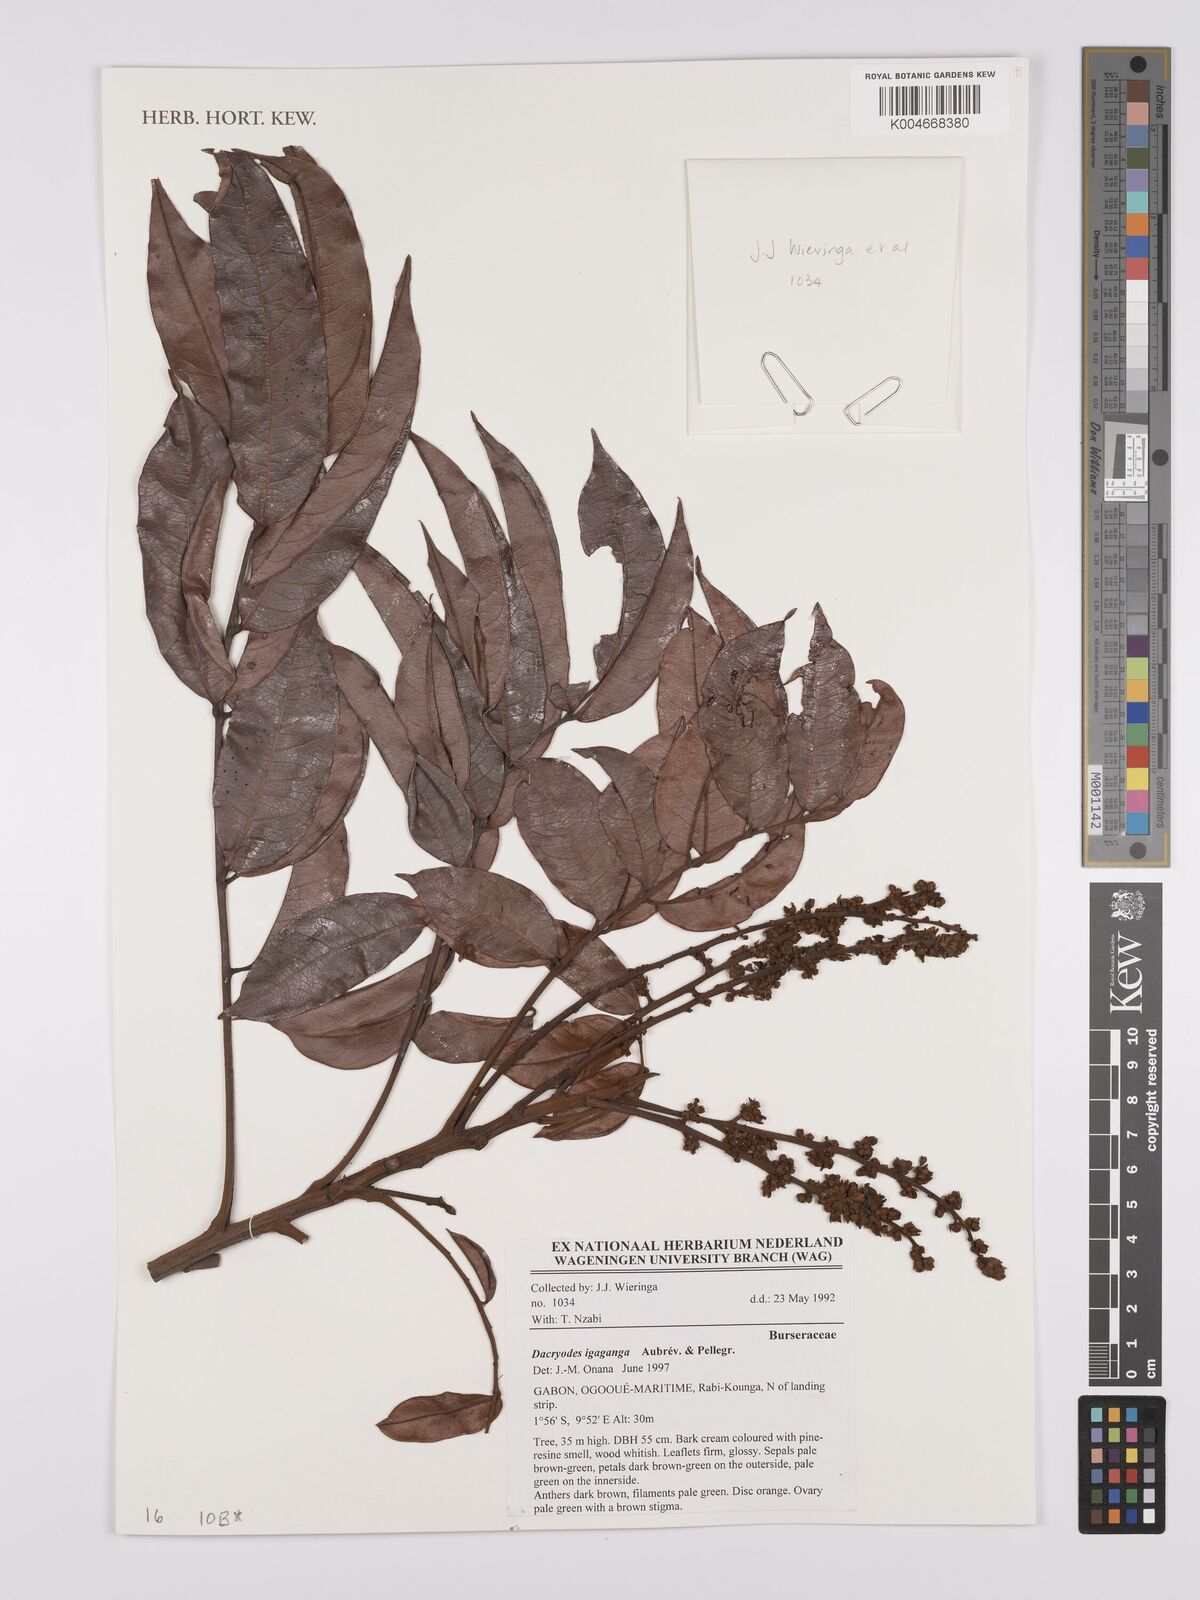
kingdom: Plantae
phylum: Tracheophyta
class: Magnoliopsida
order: Sapindales
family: Burseraceae
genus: Pachylobus
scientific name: Pachylobus igaganga
